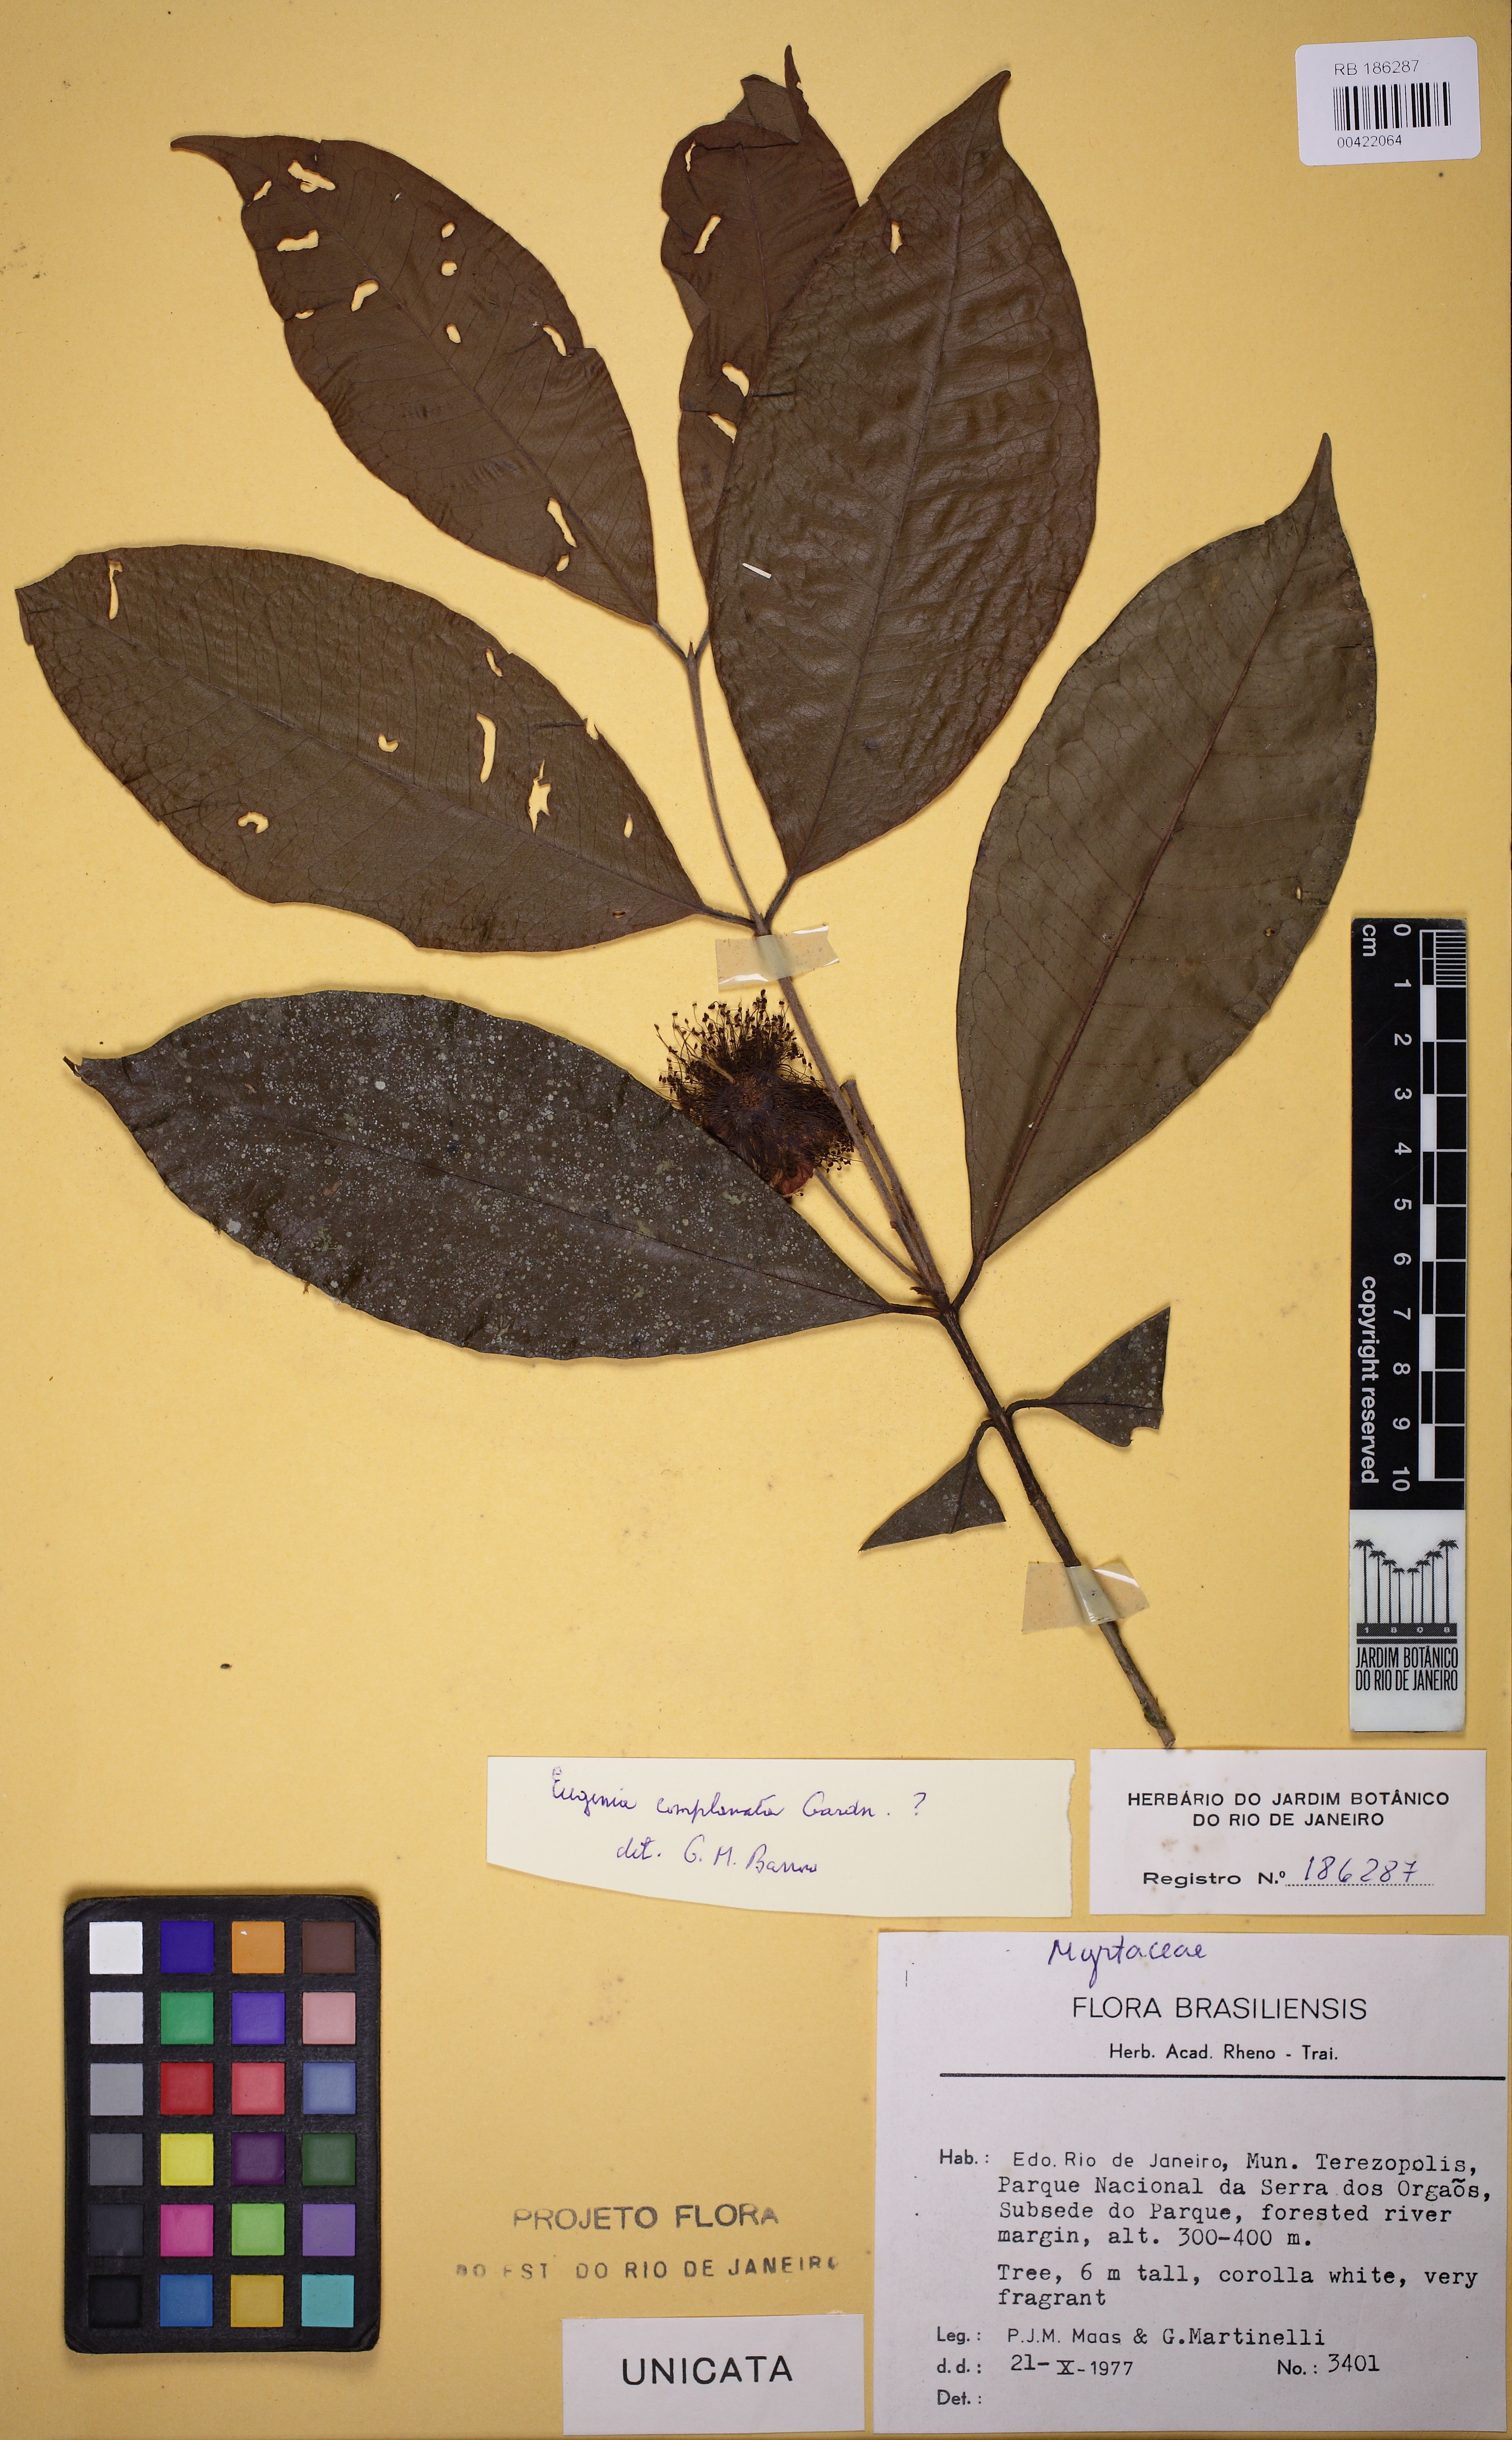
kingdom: Plantae
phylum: Tracheophyta
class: Magnoliopsida
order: Myrtales
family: Myrtaceae
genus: Eugenia
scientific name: Eugenia laruotteana
